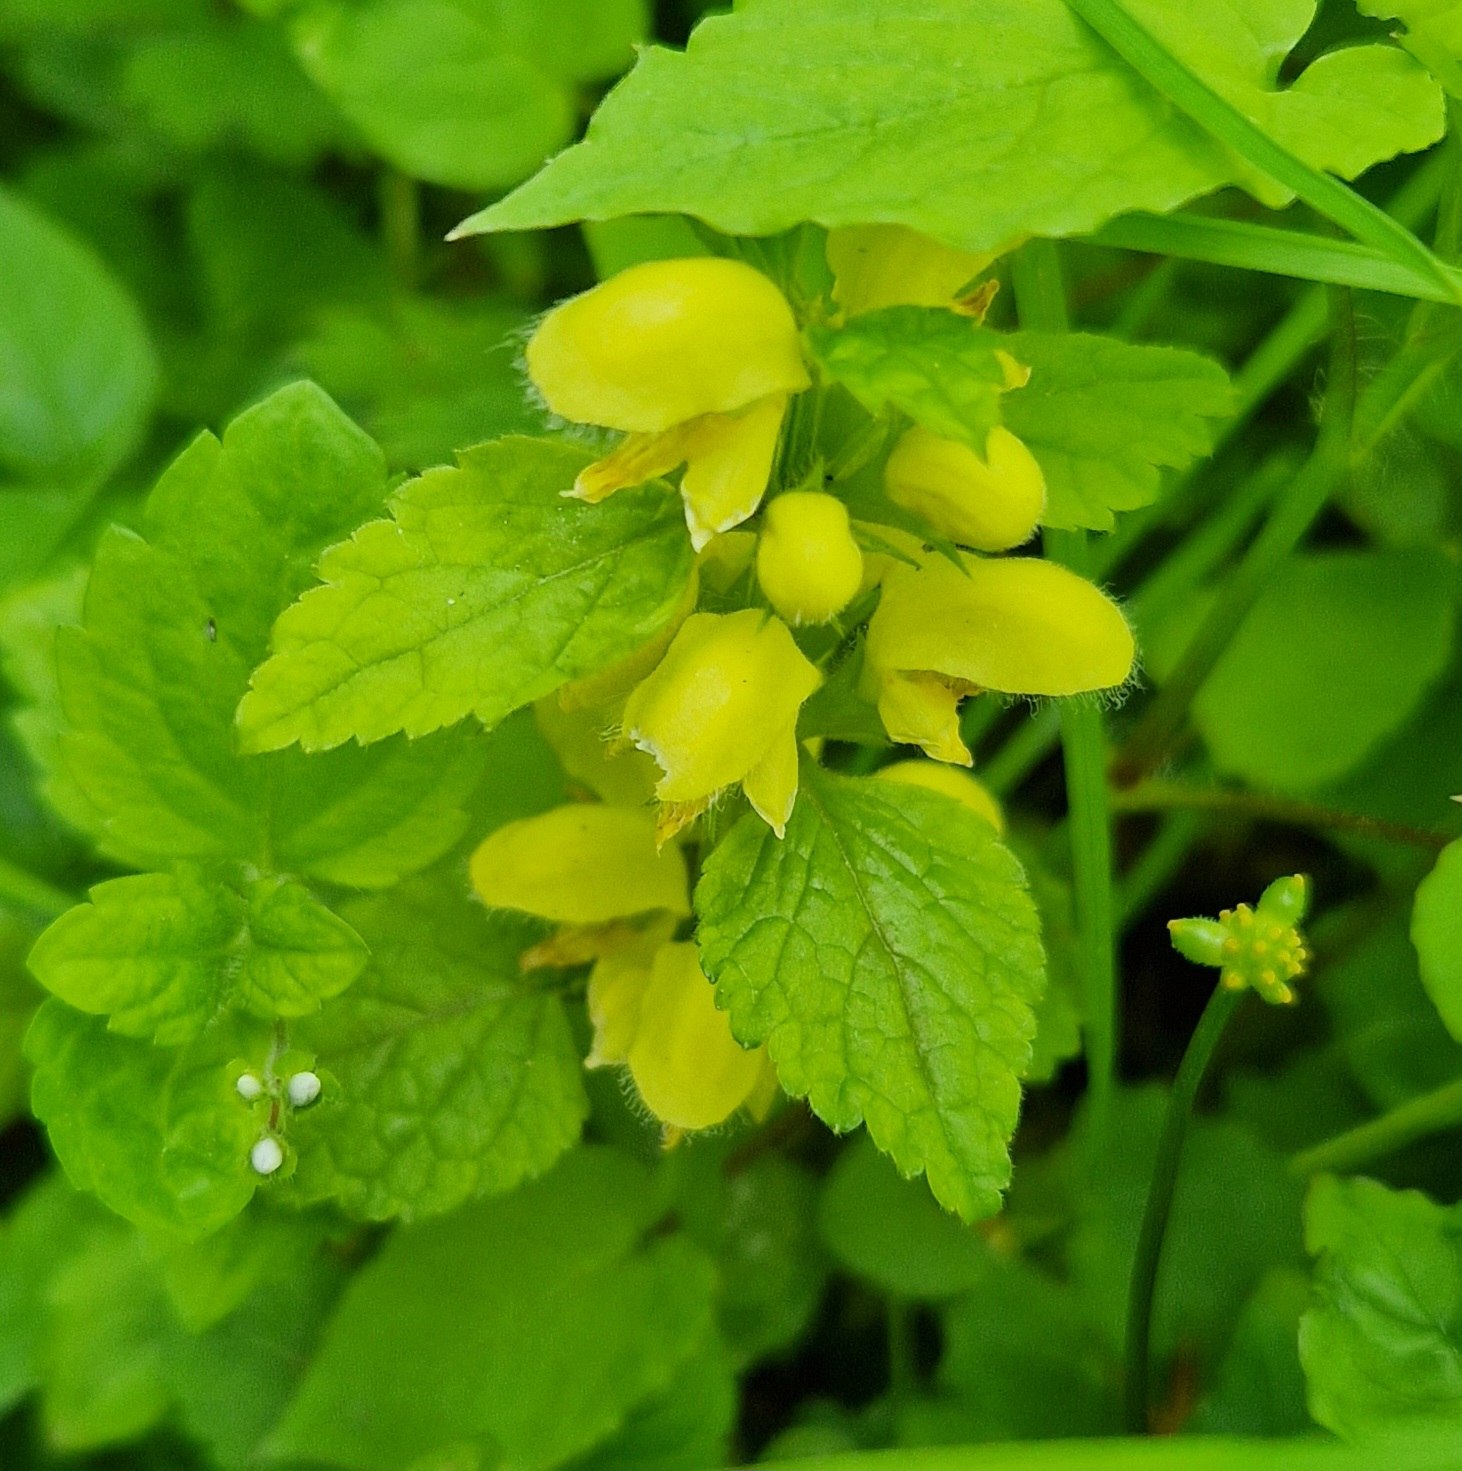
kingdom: Plantae
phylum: Tracheophyta
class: Magnoliopsida
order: Lamiales
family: Lamiaceae
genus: Lamium
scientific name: Lamium galeobdolon
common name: Guldnælde
